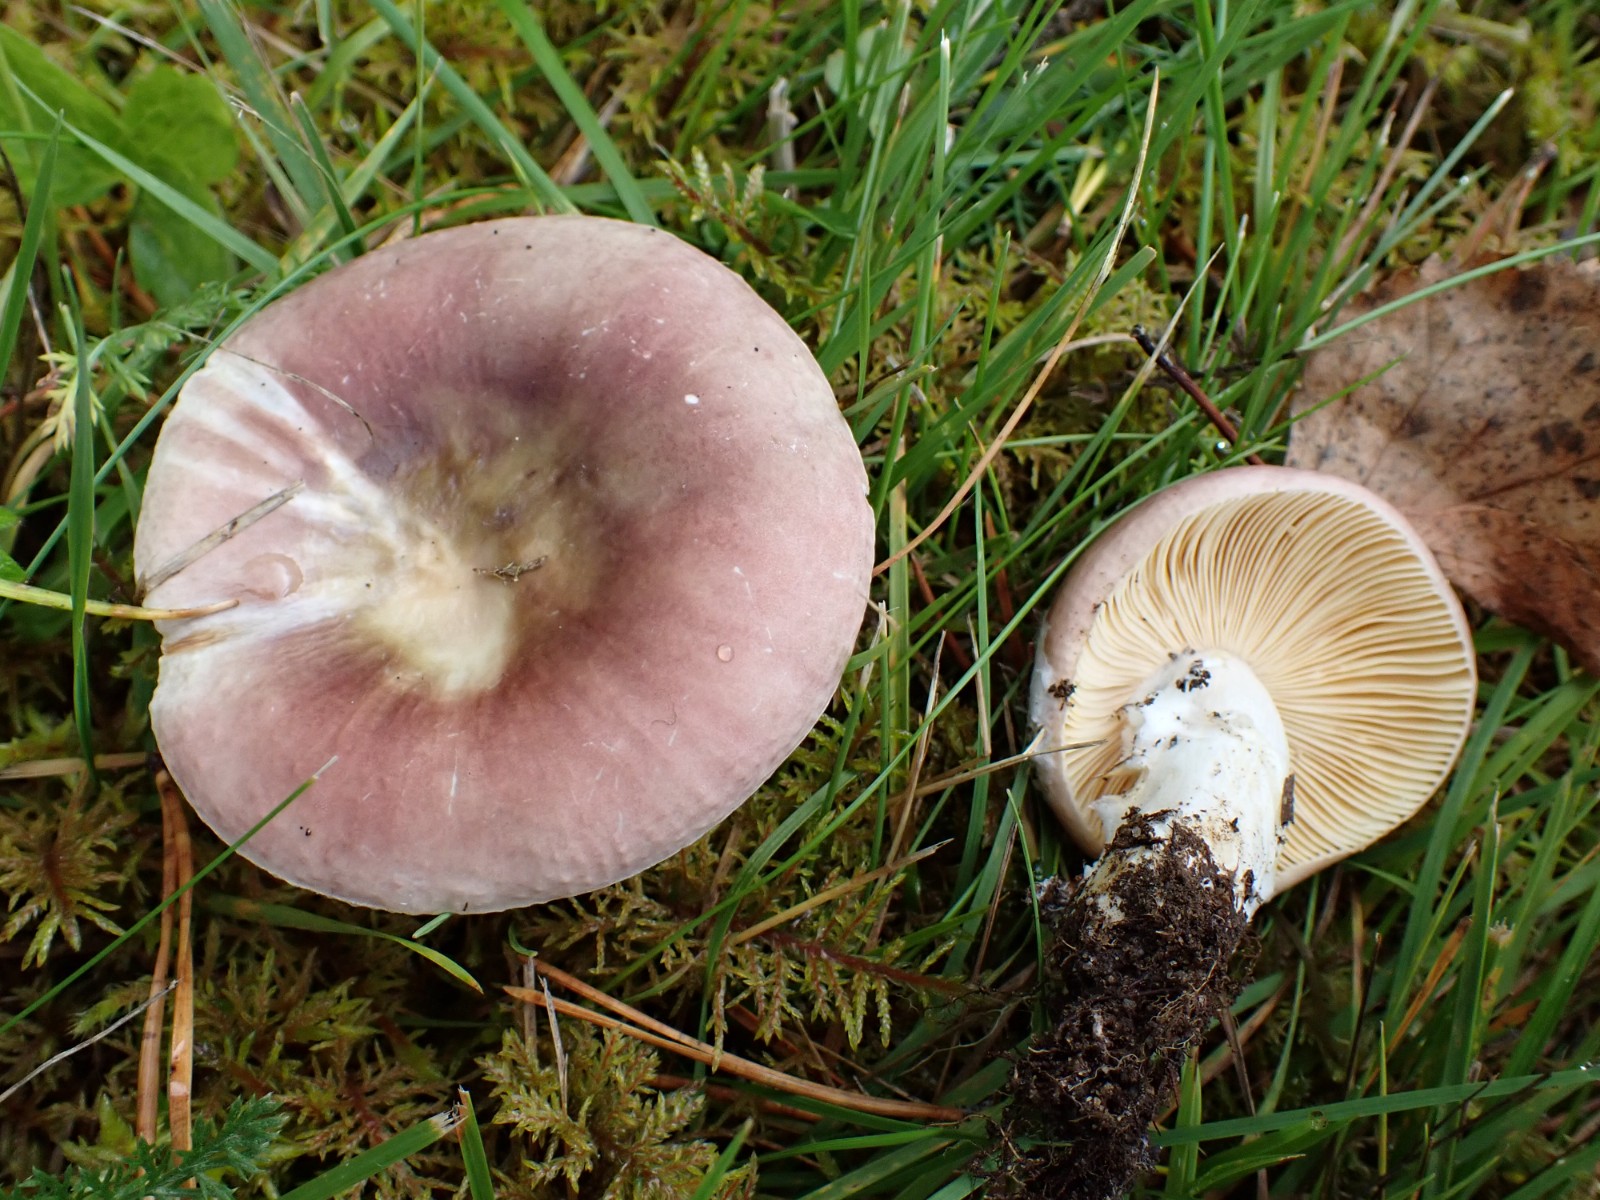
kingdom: Fungi
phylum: Basidiomycota
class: Agaricomycetes
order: Russulales
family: Russulaceae
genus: Russula
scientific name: Russula cessans
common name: fyrre-skørhat
